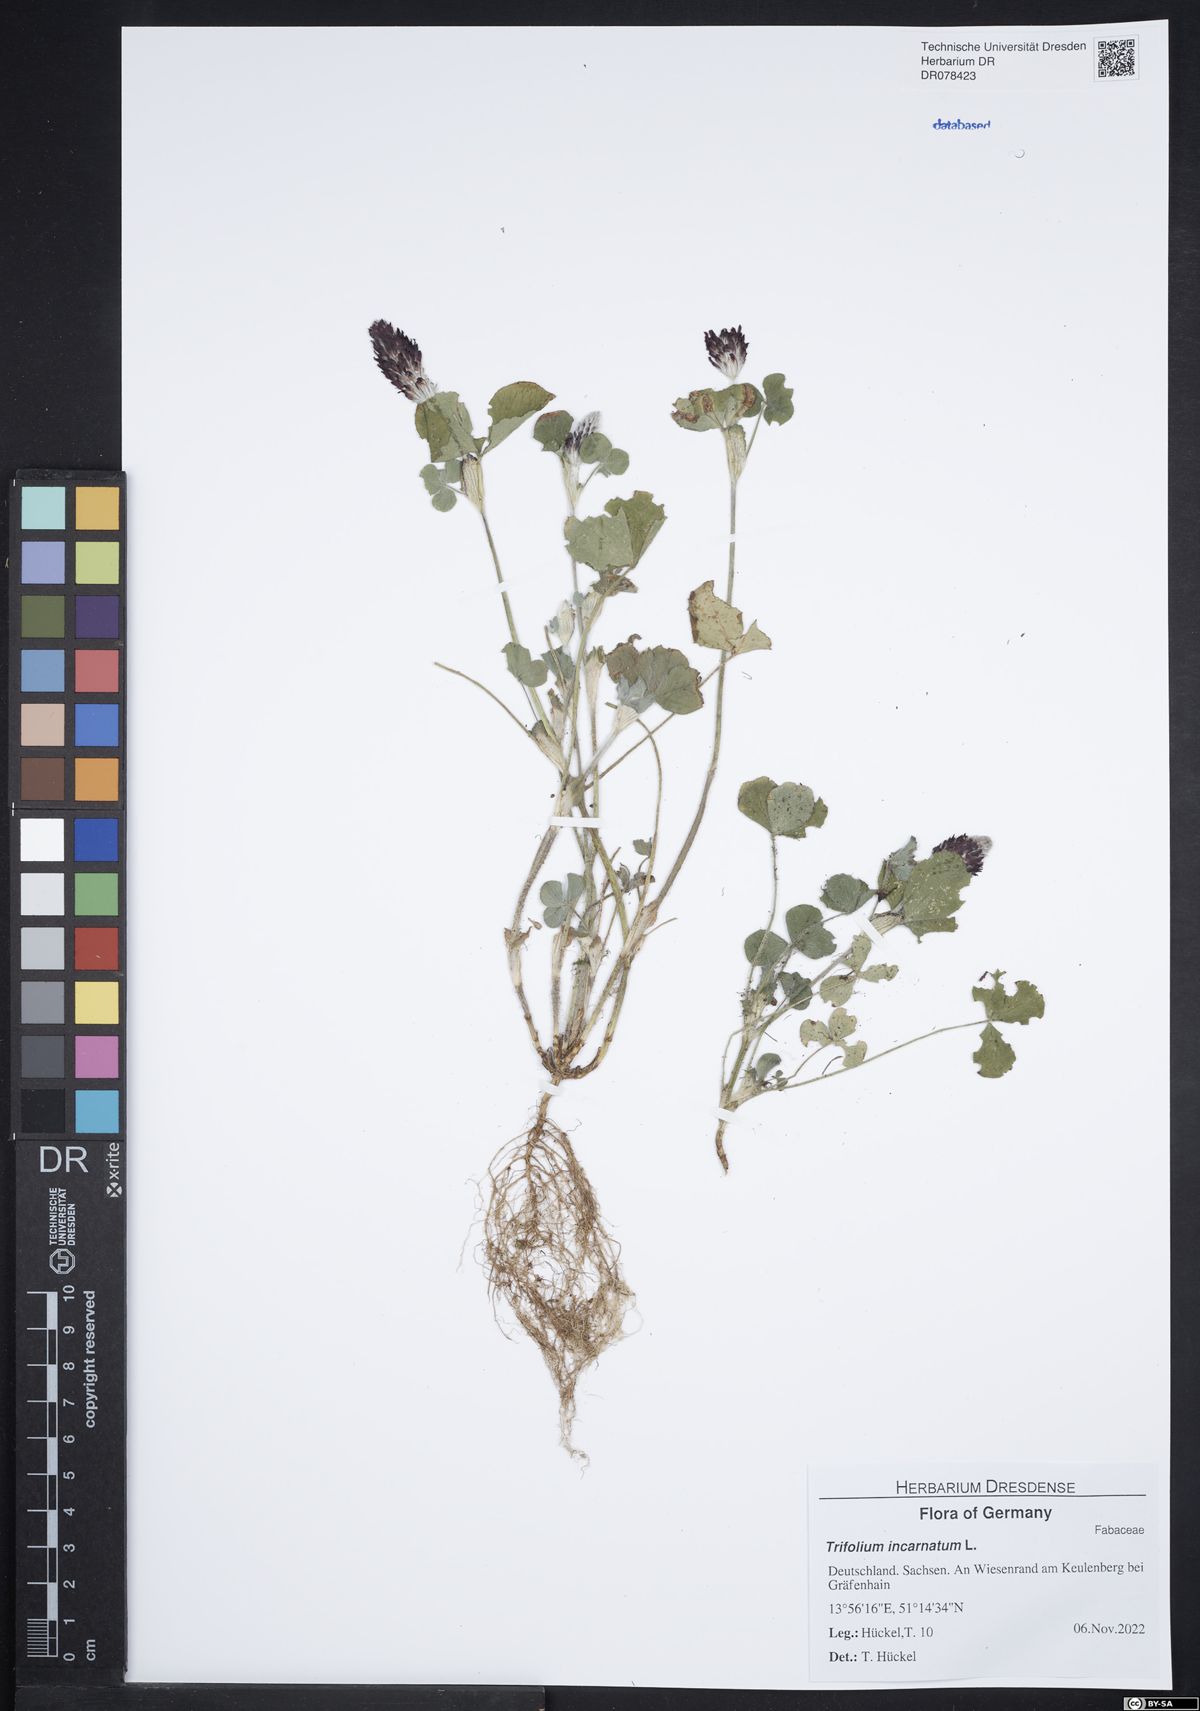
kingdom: Plantae
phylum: Tracheophyta
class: Magnoliopsida
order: Fabales
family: Fabaceae
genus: Trifolium
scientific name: Trifolium incarnatum
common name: Crimson clover
